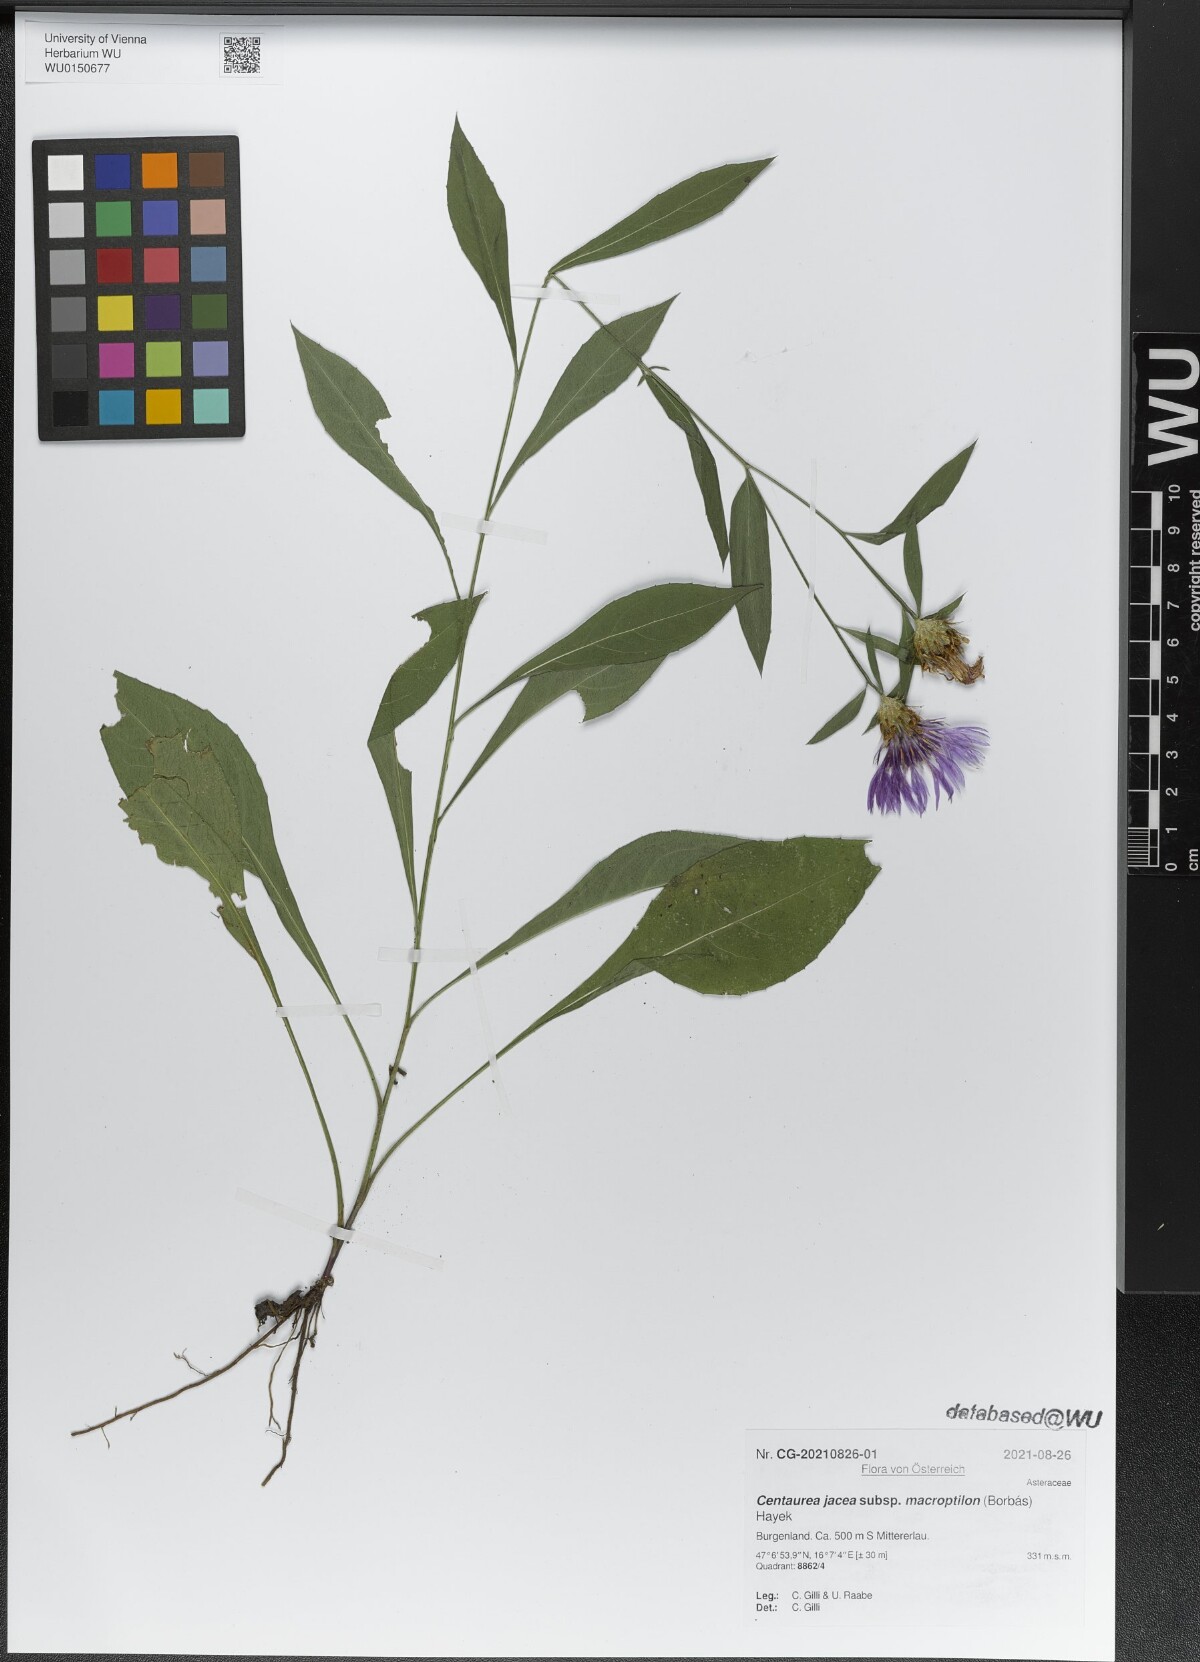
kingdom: Plantae
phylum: Tracheophyta
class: Magnoliopsida
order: Asterales
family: Asteraceae
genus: Centaurea
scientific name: Centaurea
